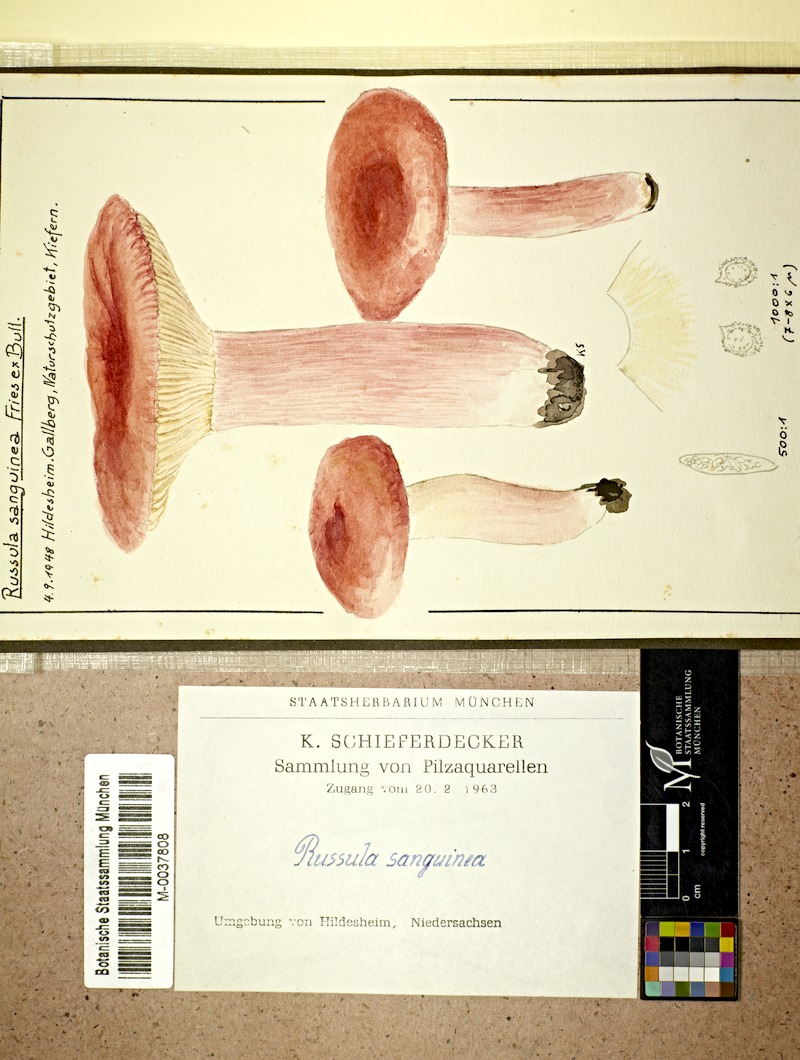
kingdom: Fungi
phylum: Basidiomycota
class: Agaricomycetes
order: Russulales
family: Russulaceae
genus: Russula
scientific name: Russula sanguinea
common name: Bloody brittlegill
